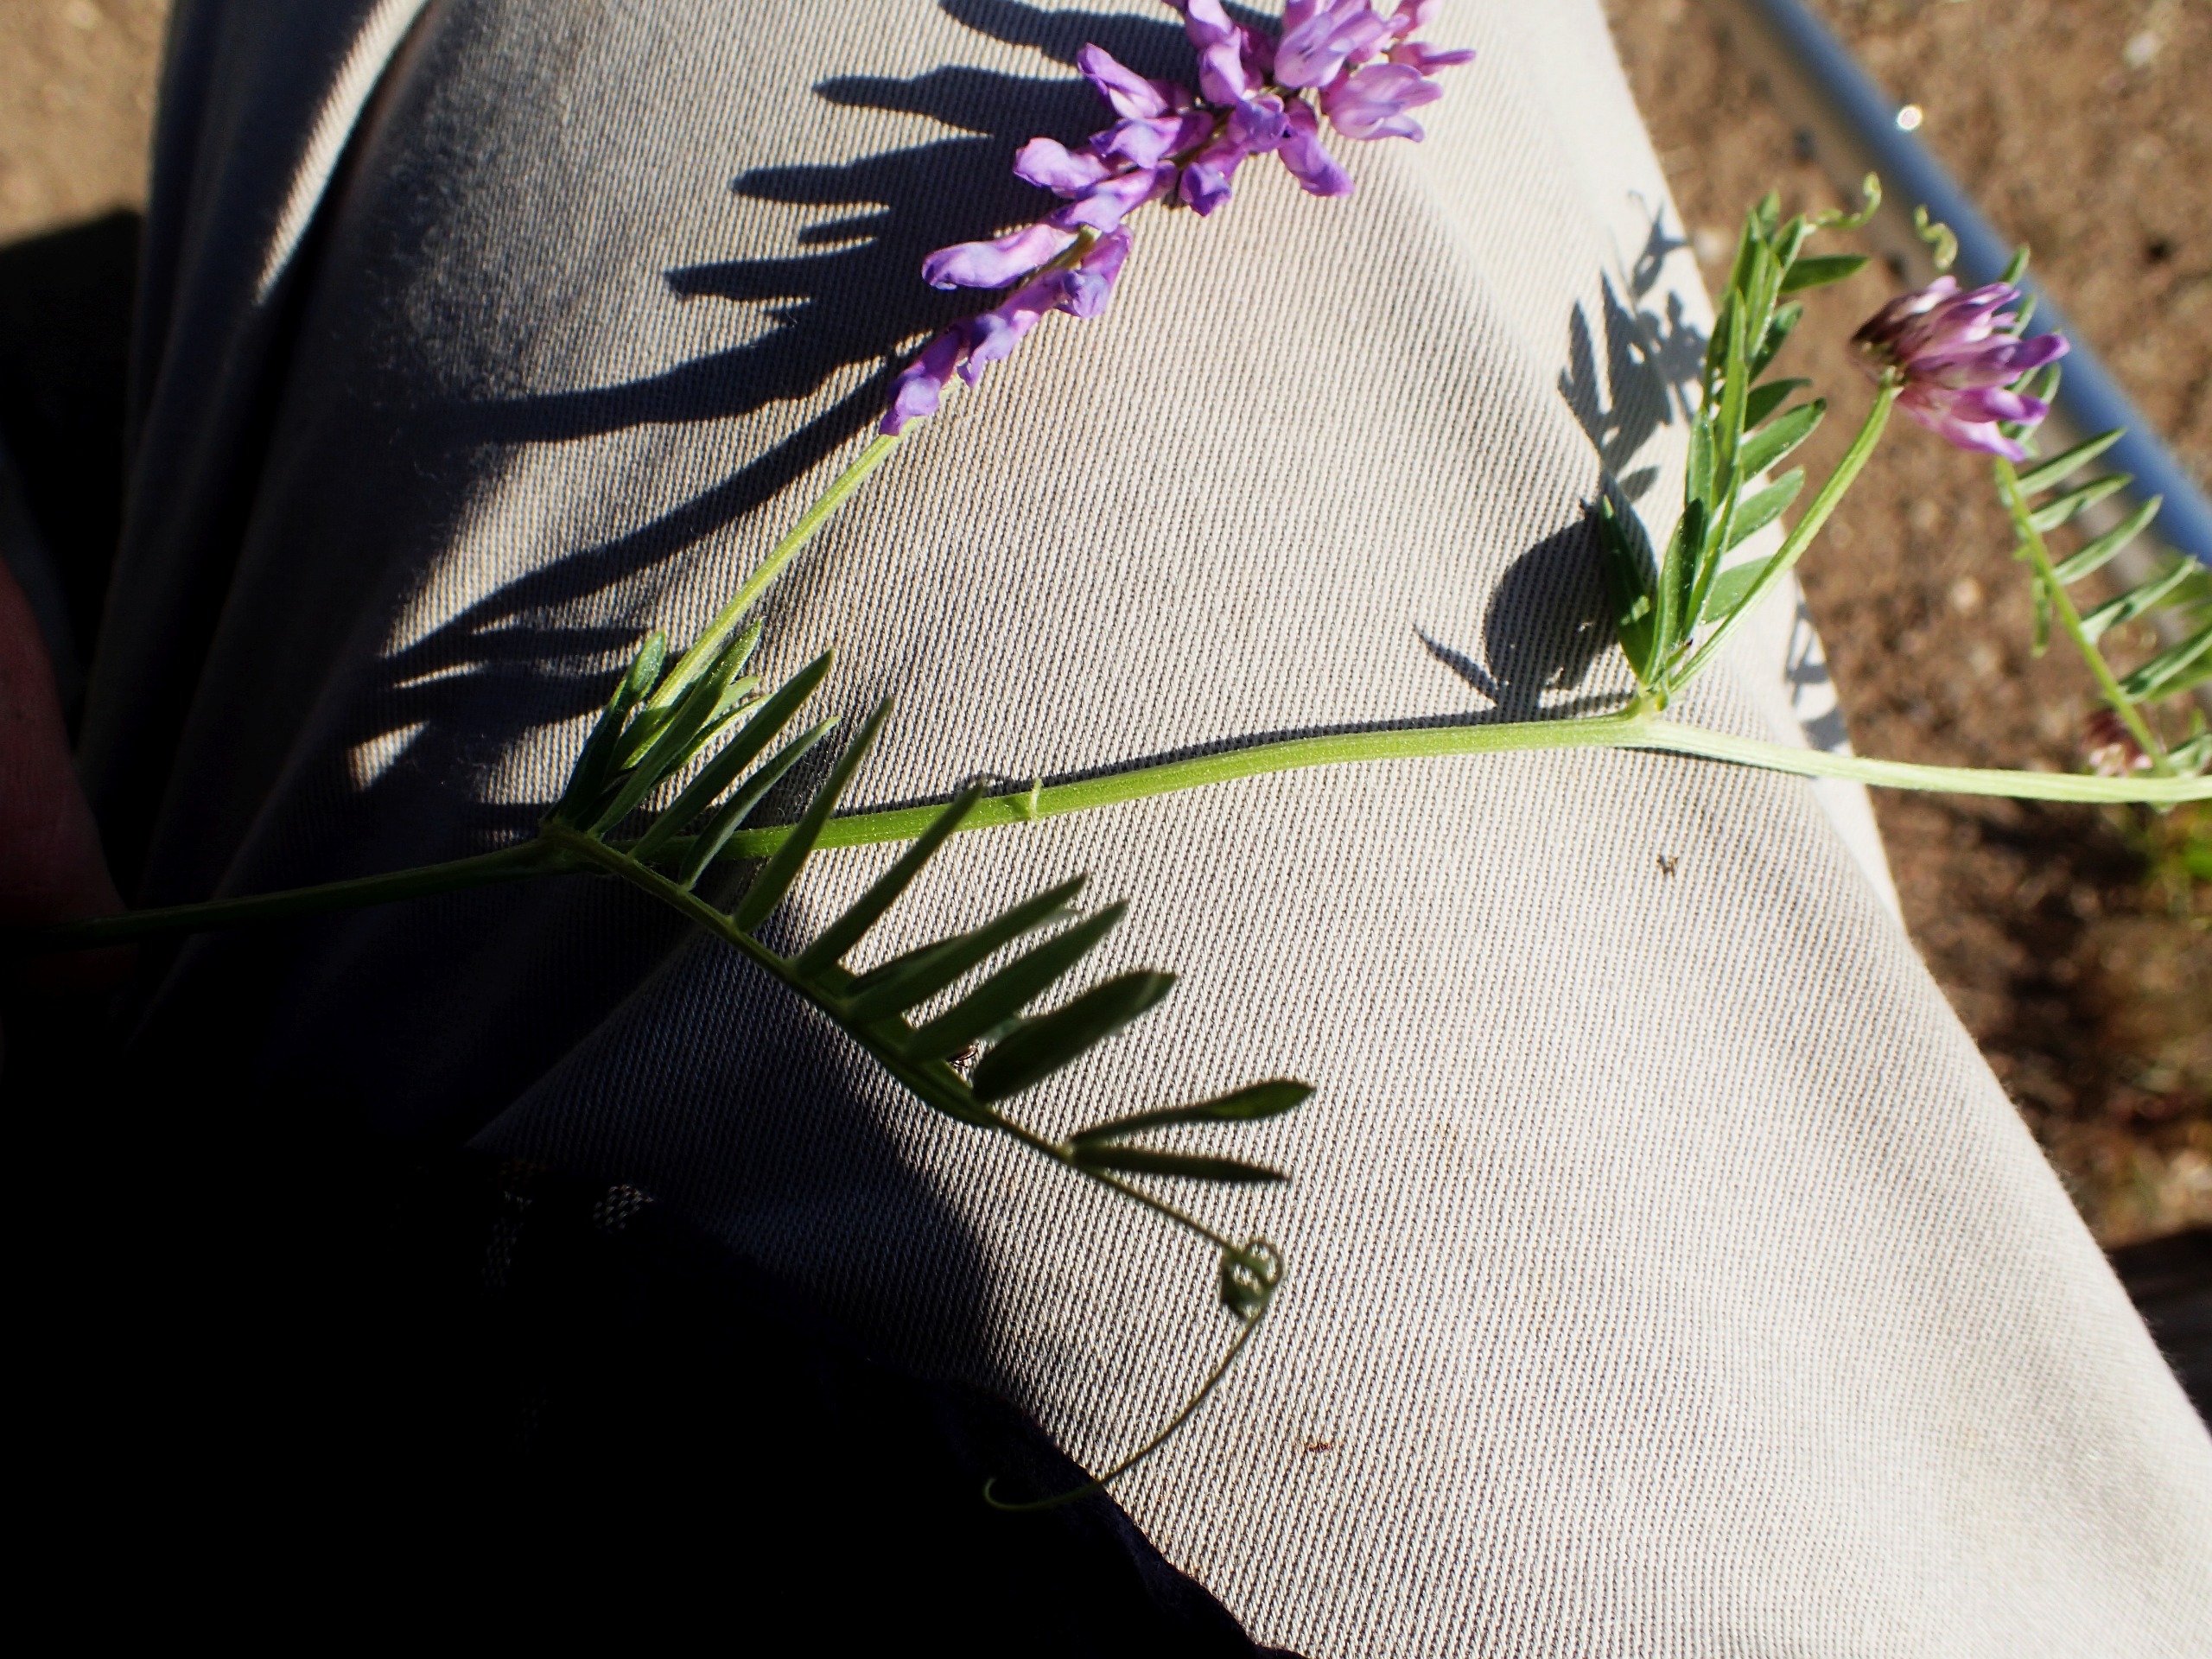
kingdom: Plantae
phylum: Tracheophyta
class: Magnoliopsida
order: Fabales
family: Fabaceae
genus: Vicia
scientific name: Vicia cracca
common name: Muse-vikke
